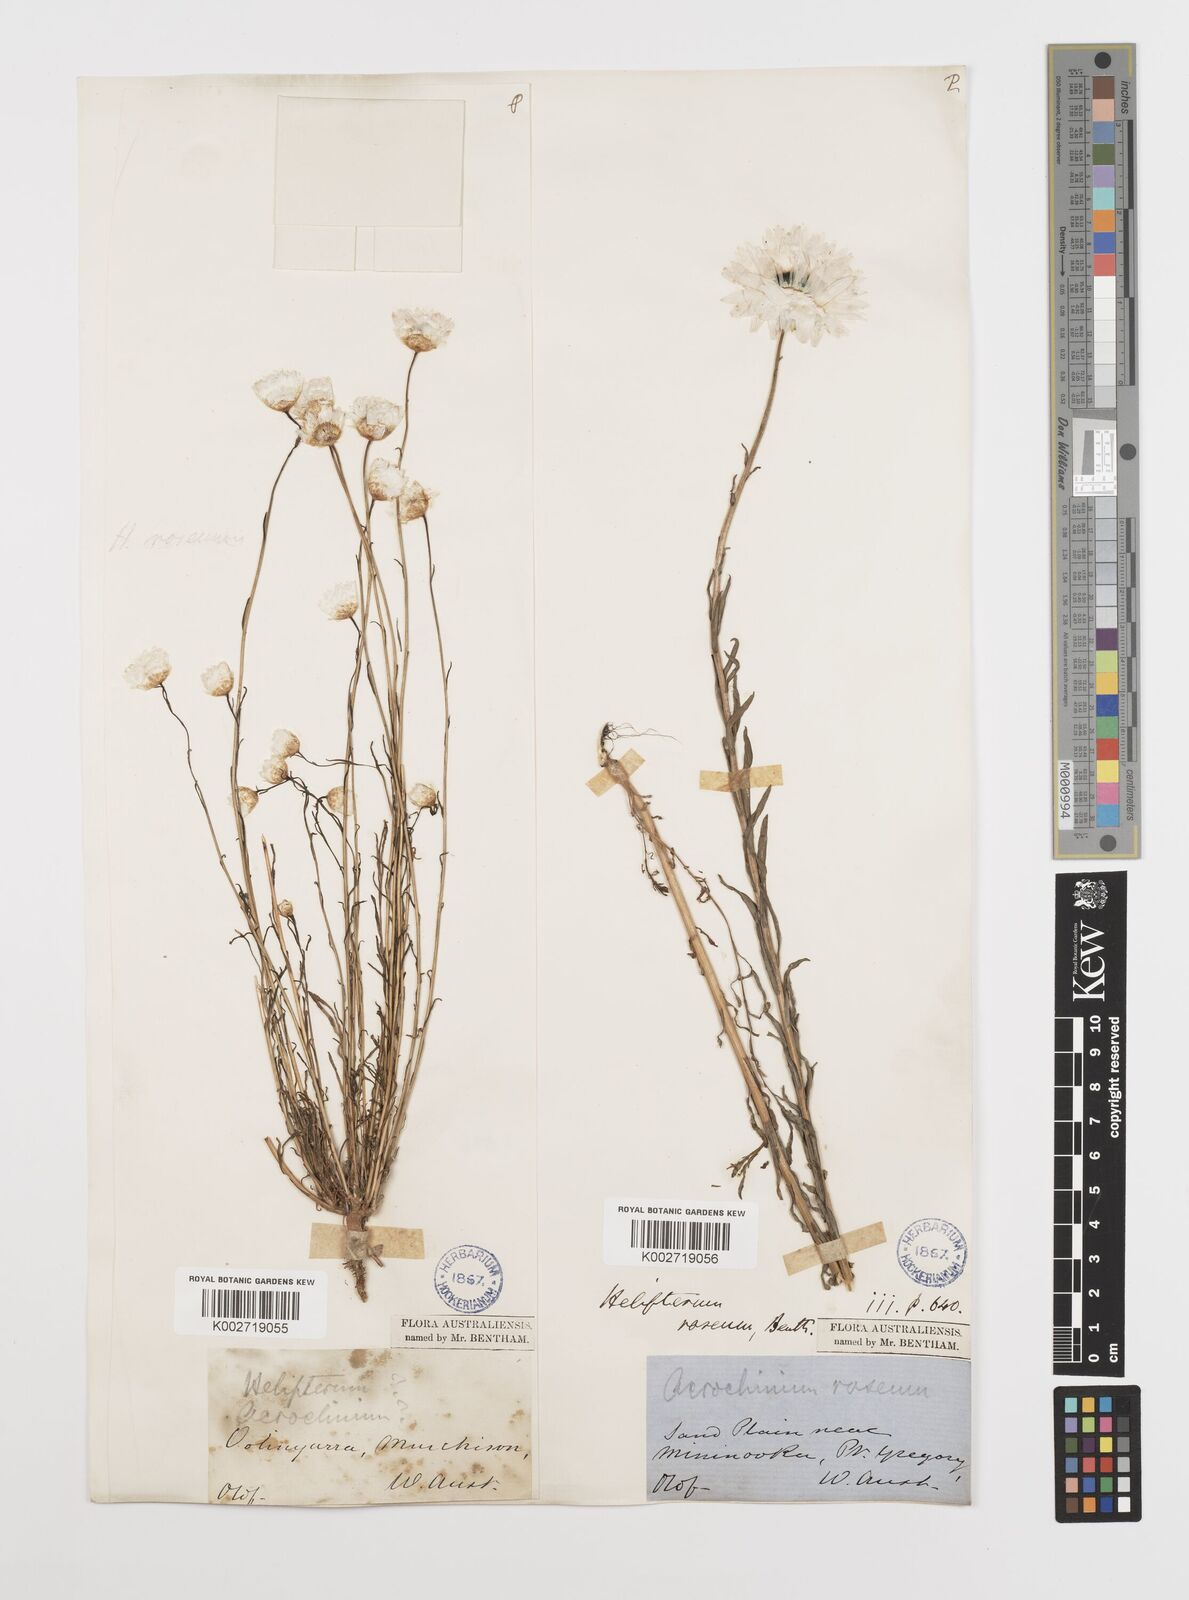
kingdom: Plantae
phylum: Tracheophyta
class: Magnoliopsida
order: Asterales
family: Asteraceae
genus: Rhodanthe
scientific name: Rhodanthe chlorocephala
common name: Rosy sunray
